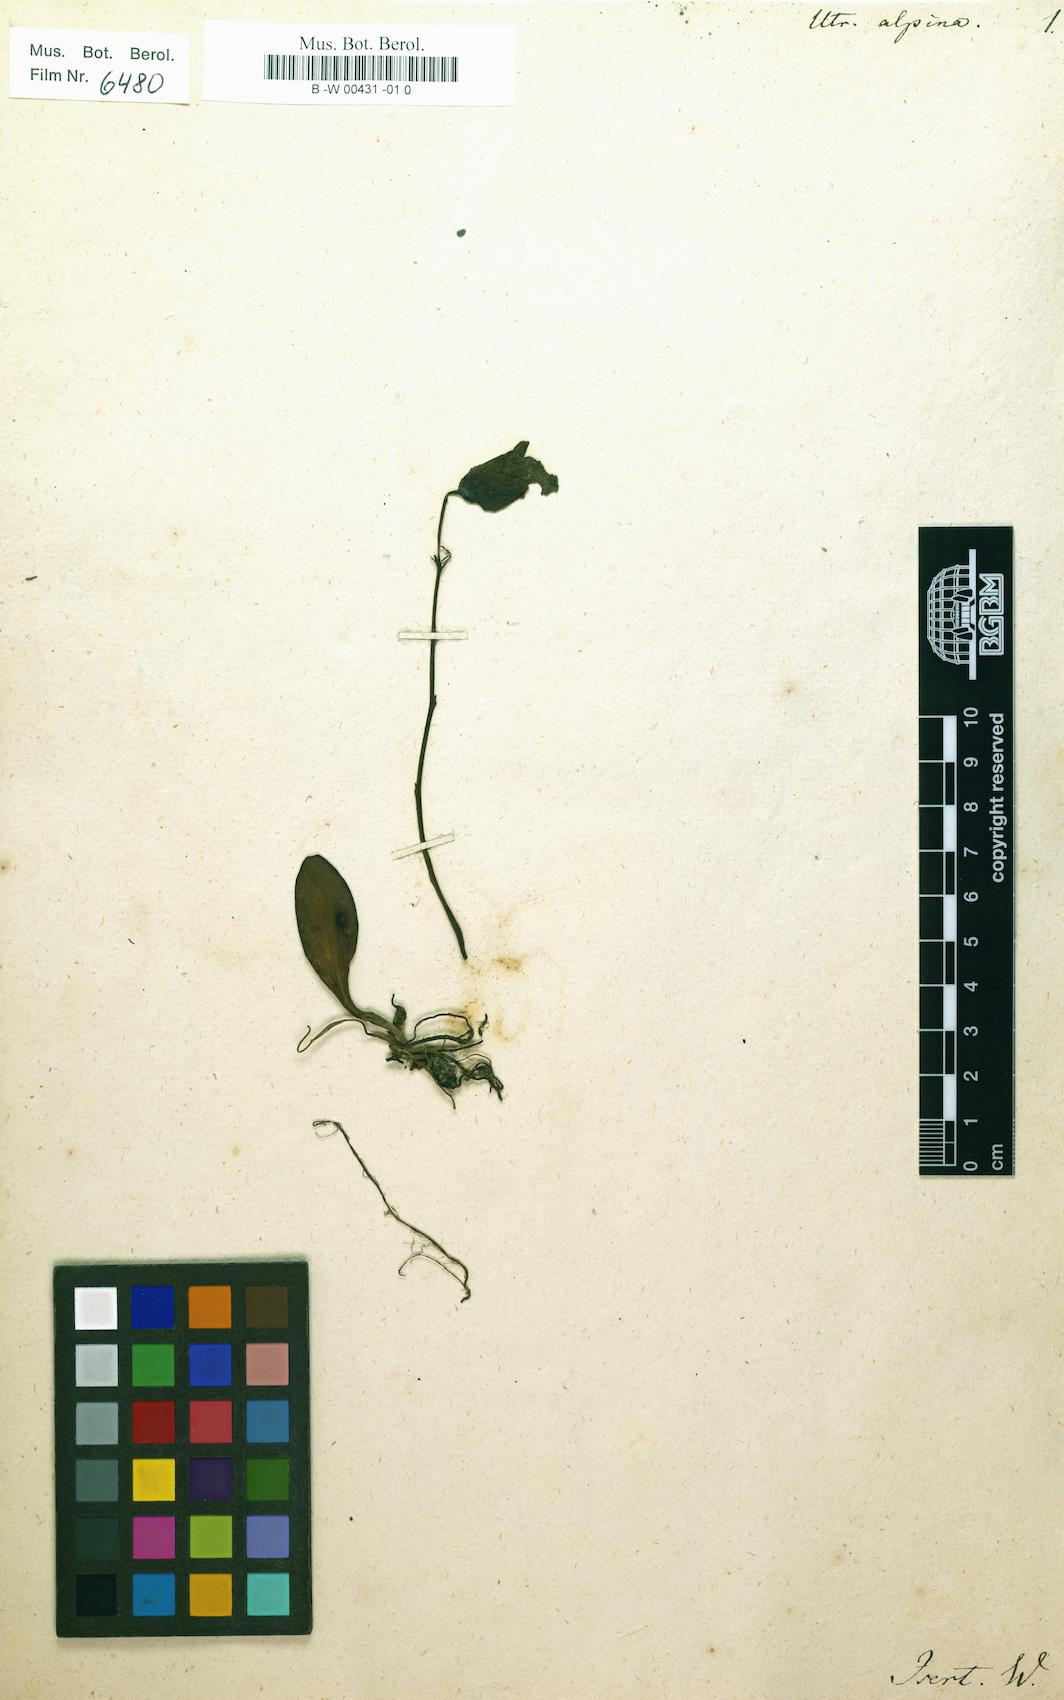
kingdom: Plantae
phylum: Tracheophyta
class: Magnoliopsida
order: Lamiales
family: Lentibulariaceae
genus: Utricularia
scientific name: Utricularia alpina
